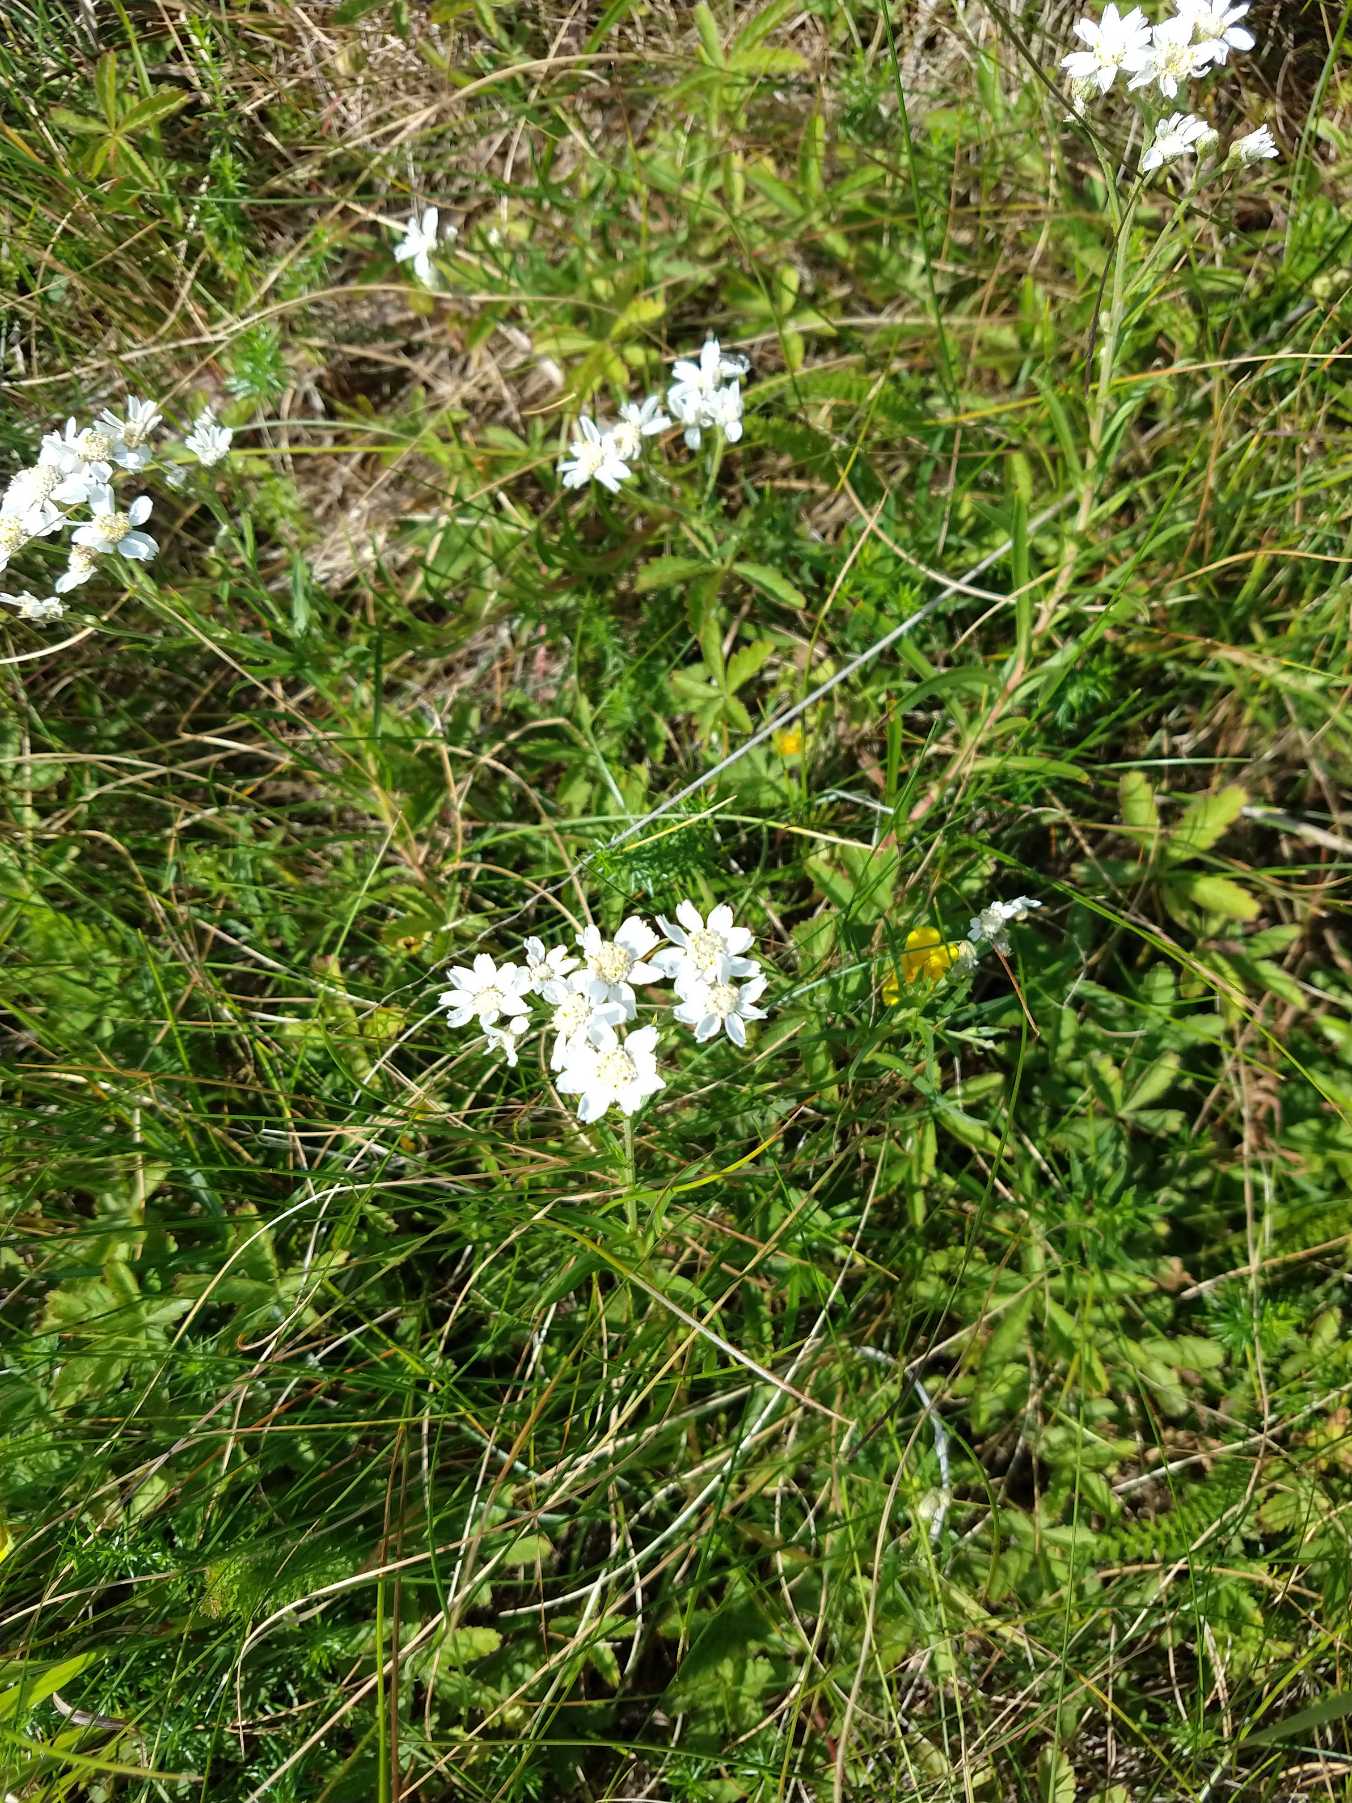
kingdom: Plantae
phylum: Tracheophyta
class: Magnoliopsida
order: Asterales
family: Asteraceae
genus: Achillea
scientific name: Achillea ptarmica
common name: Nyse-røllike
